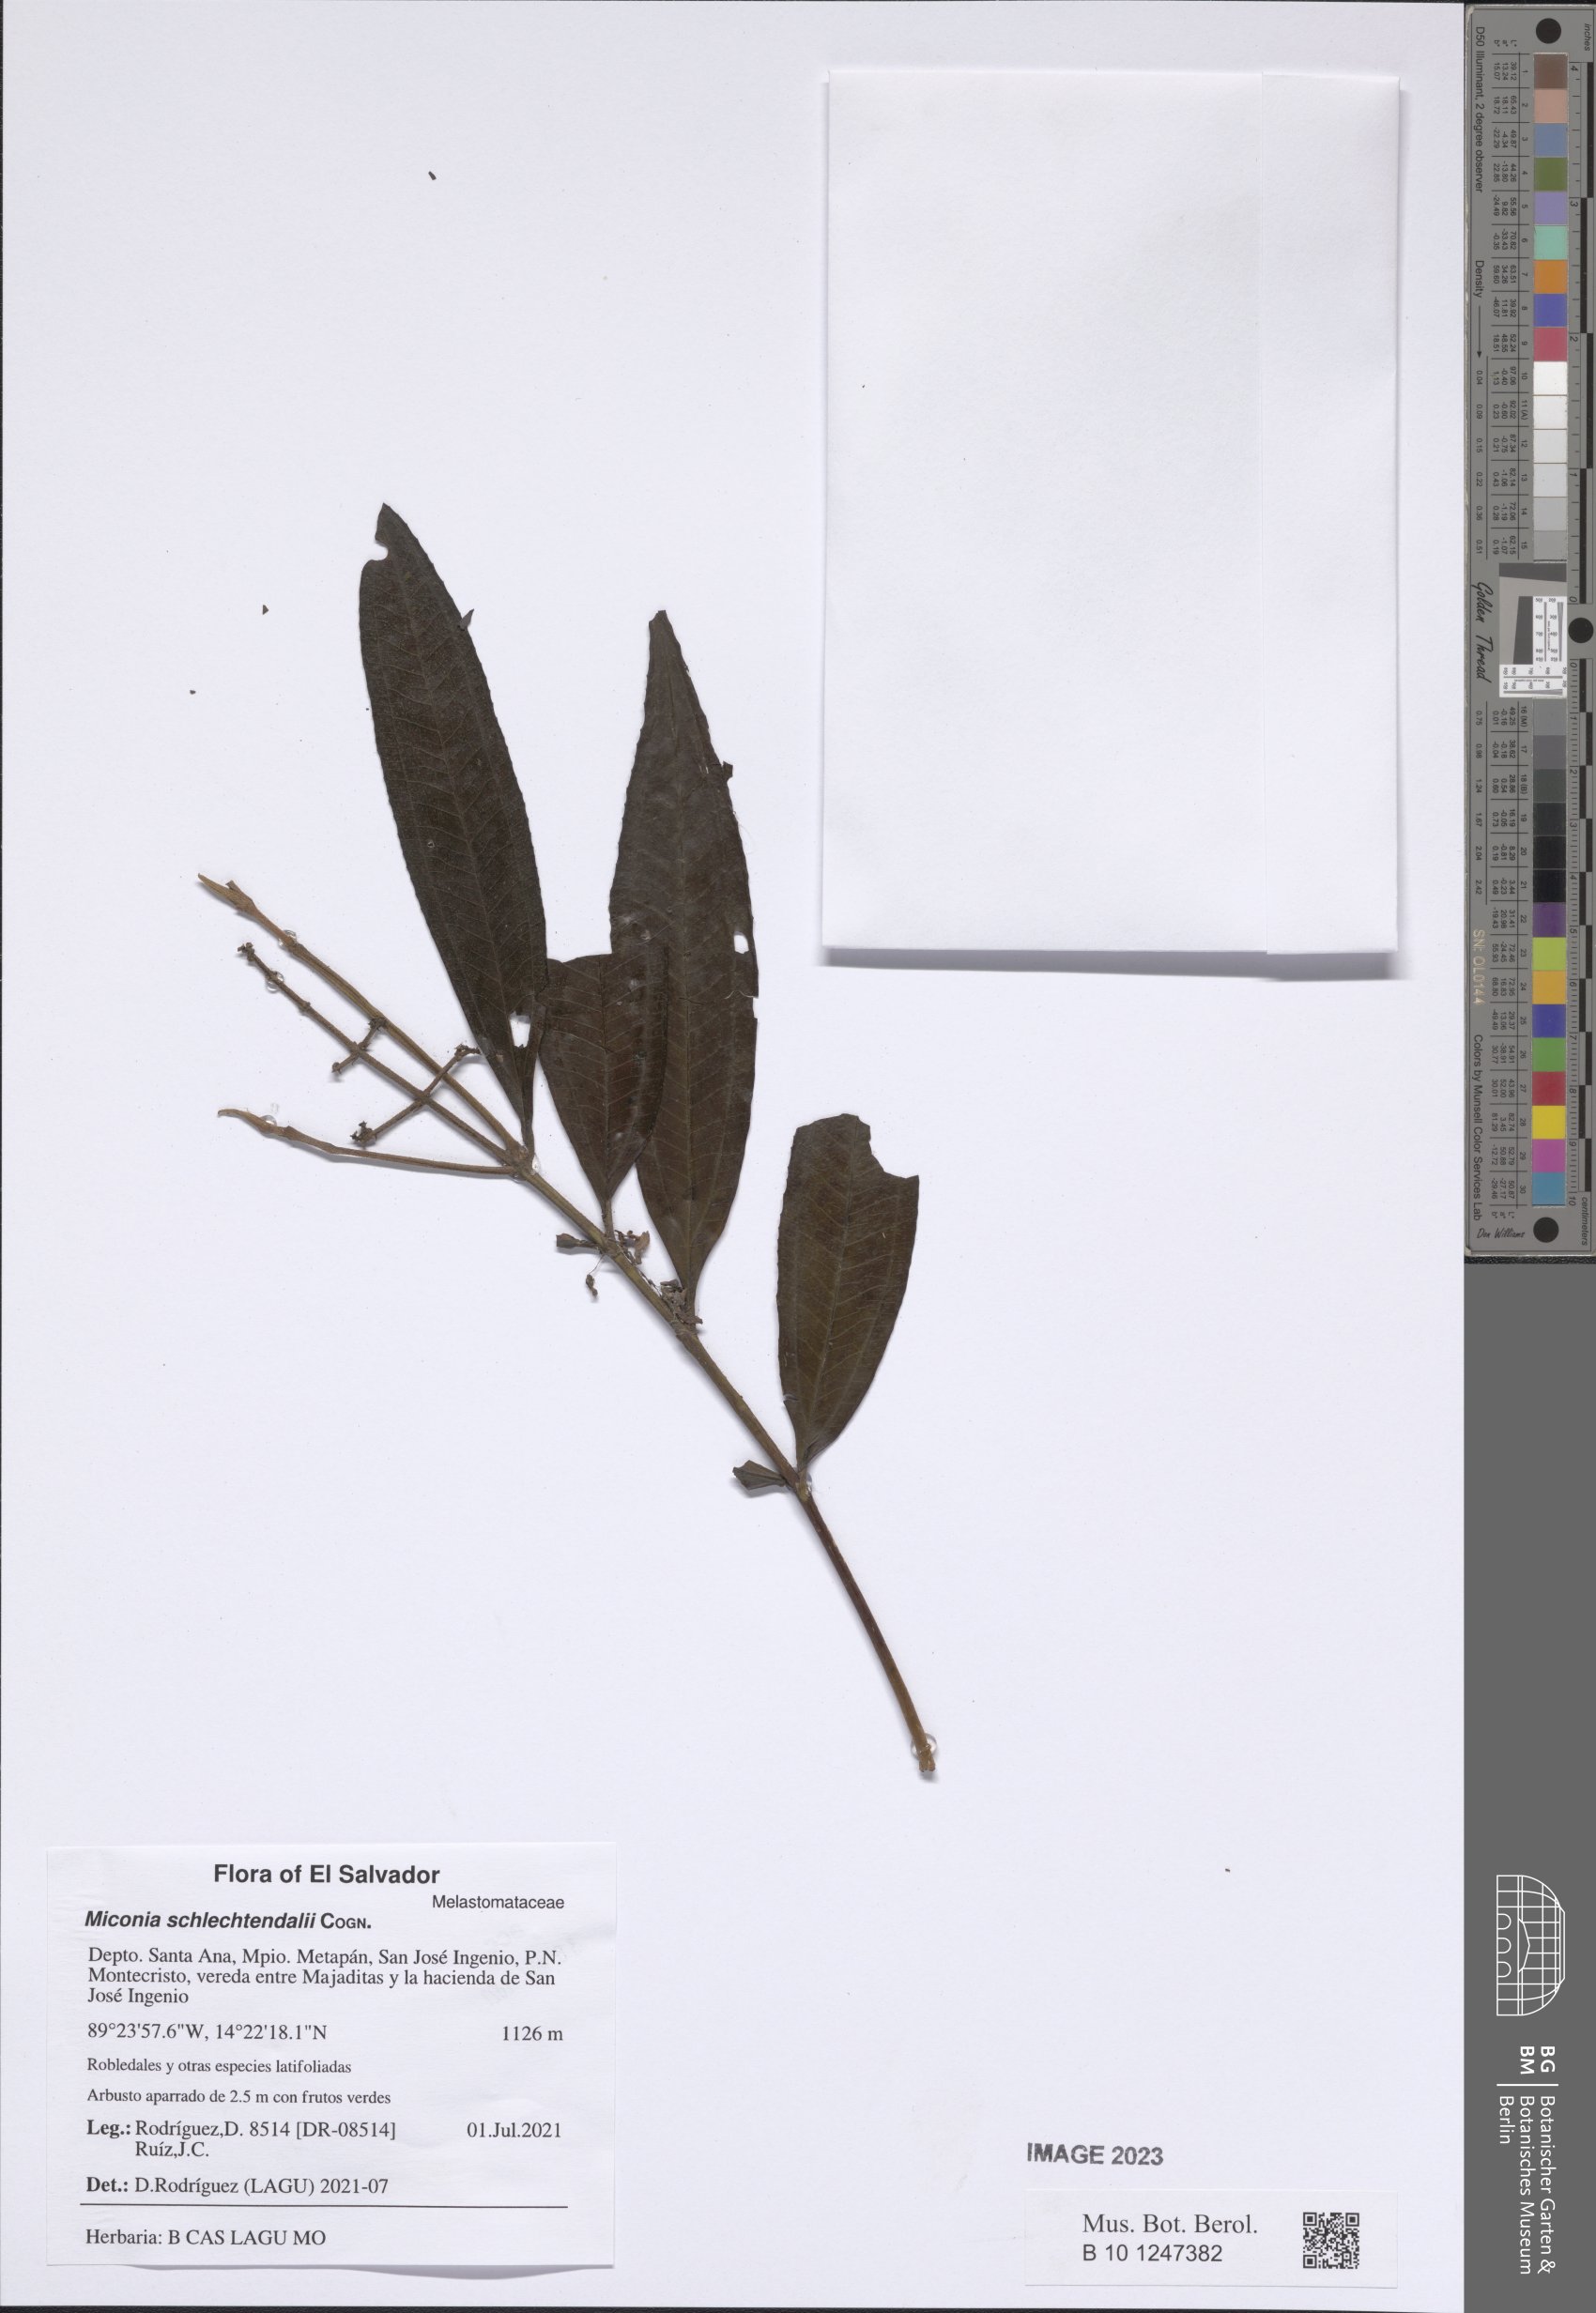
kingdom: Plantae
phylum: Tracheophyta
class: Magnoliopsida
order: Myrtales
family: Melastomataceae
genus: Miconia
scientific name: Miconia schlechtendalii
